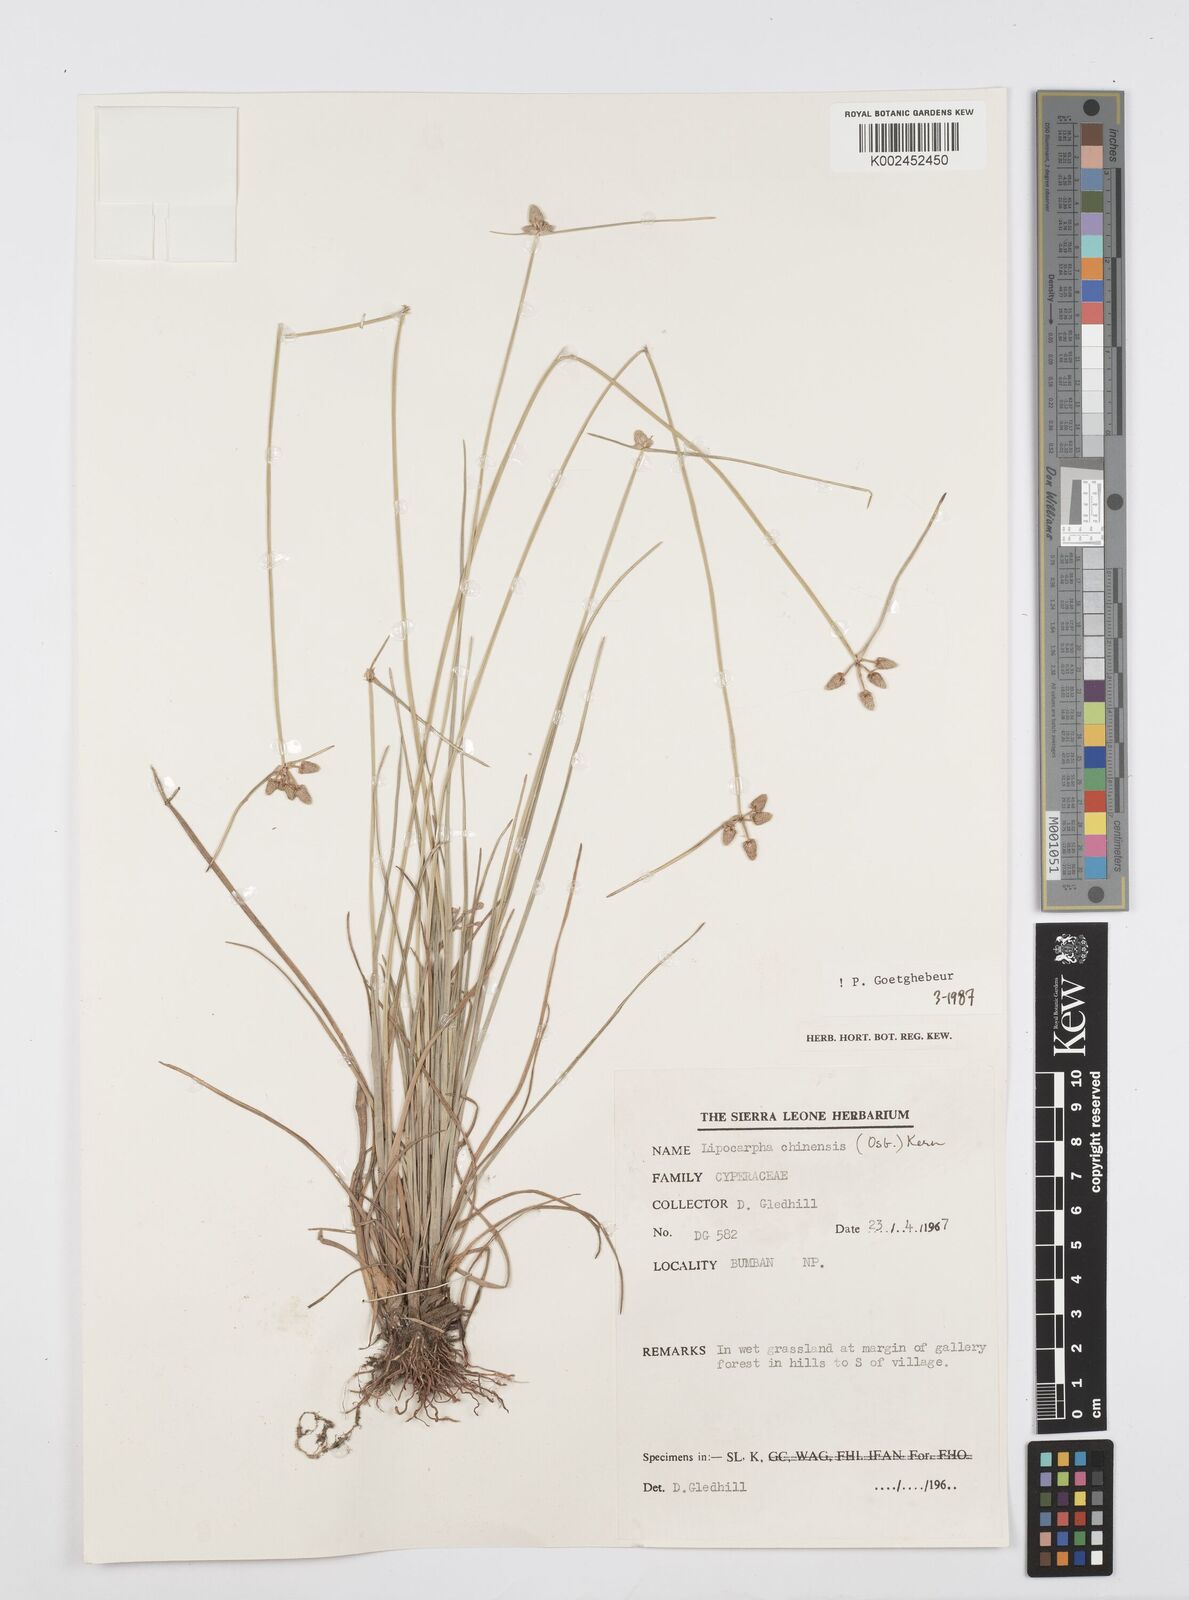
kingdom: Plantae
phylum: Tracheophyta
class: Liliopsida
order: Poales
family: Cyperaceae
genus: Cyperus
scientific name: Cyperus albescens
